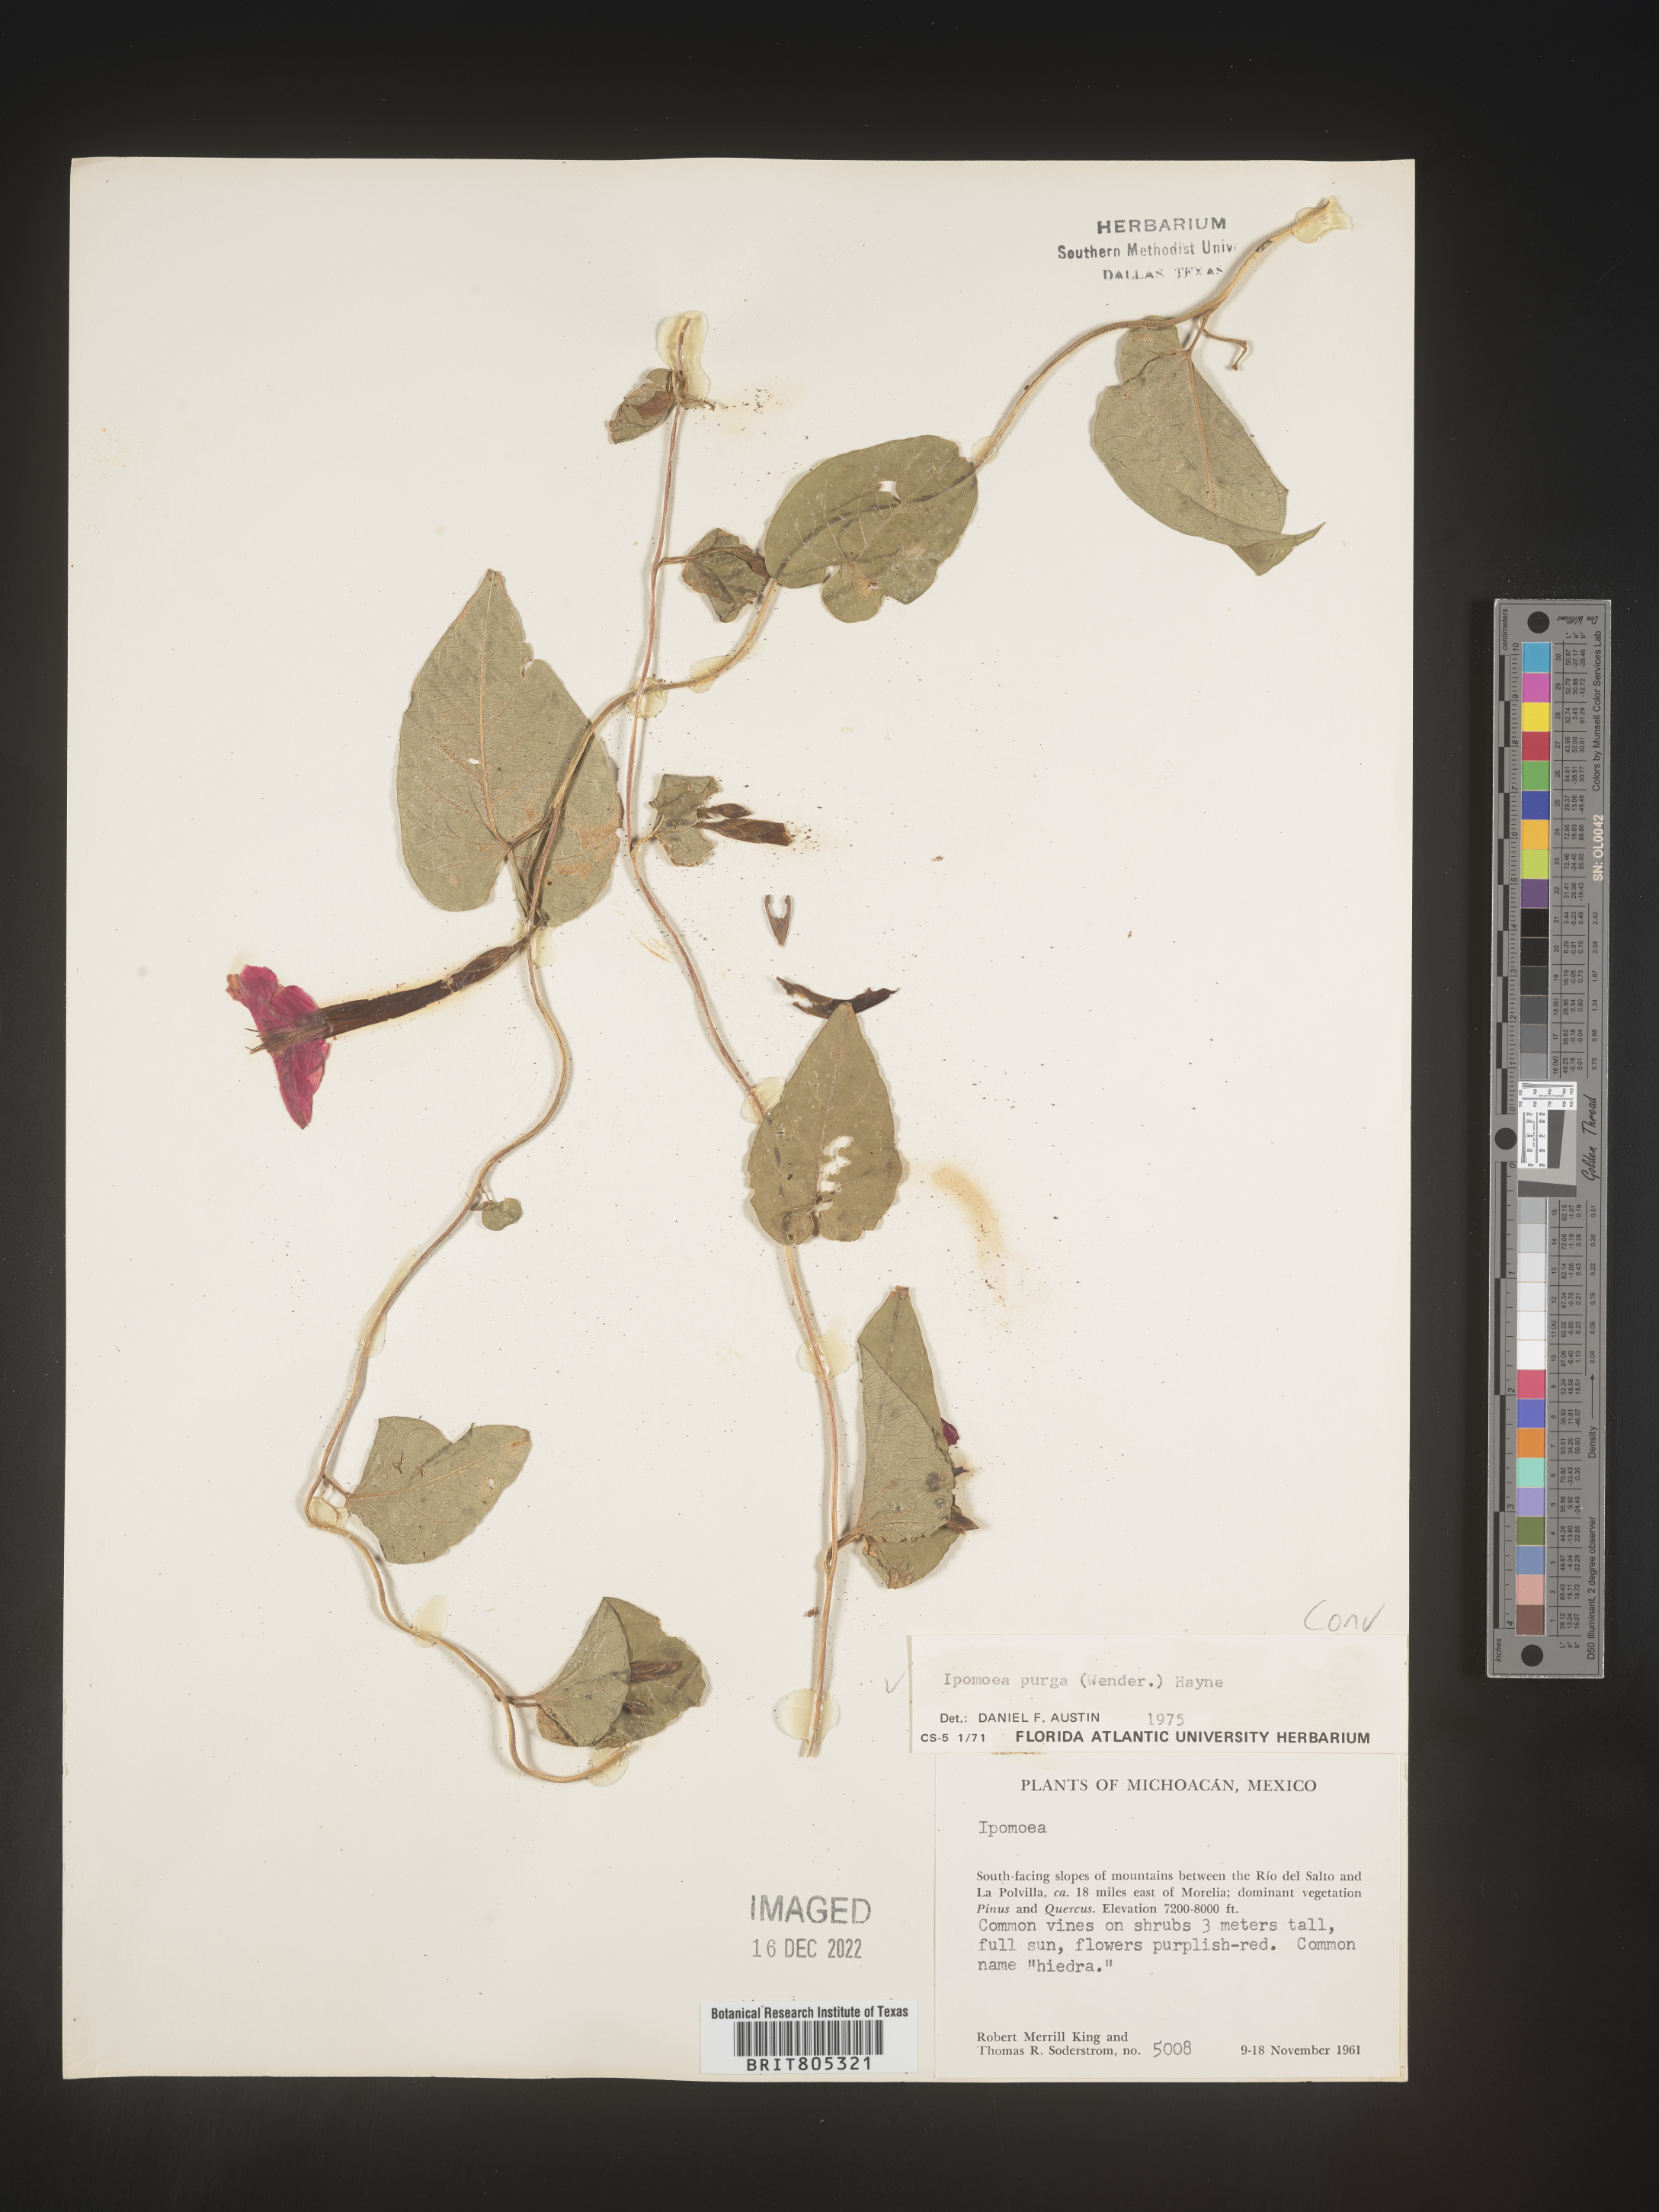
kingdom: Plantae
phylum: Tracheophyta
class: Magnoliopsida
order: Solanales
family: Convolvulaceae
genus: Ipomoea
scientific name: Ipomoea
